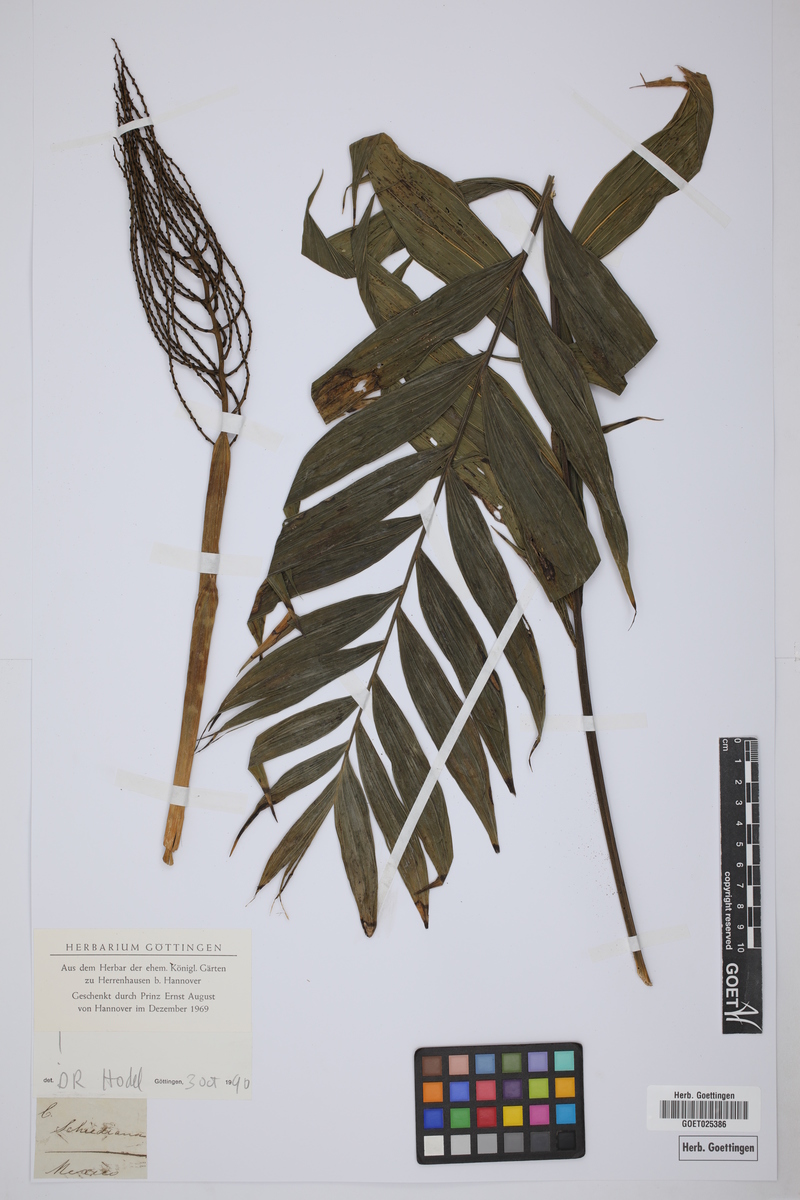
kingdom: Plantae
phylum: Tracheophyta
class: Liliopsida
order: Arecales
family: Arecaceae
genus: Chamaedorea
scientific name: Chamaedorea
